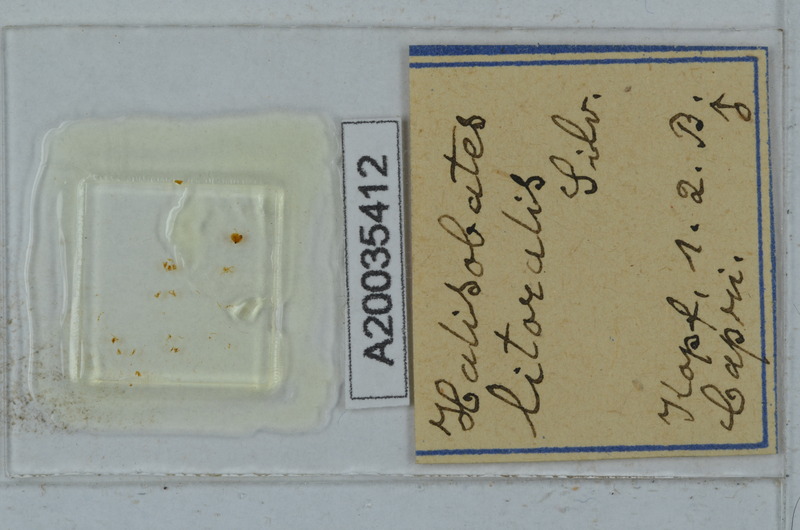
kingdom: Animalia
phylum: Arthropoda
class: Diplopoda
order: Julida
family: Nemasomatidae
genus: Thalassisobates
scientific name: Thalassisobates littoralis
